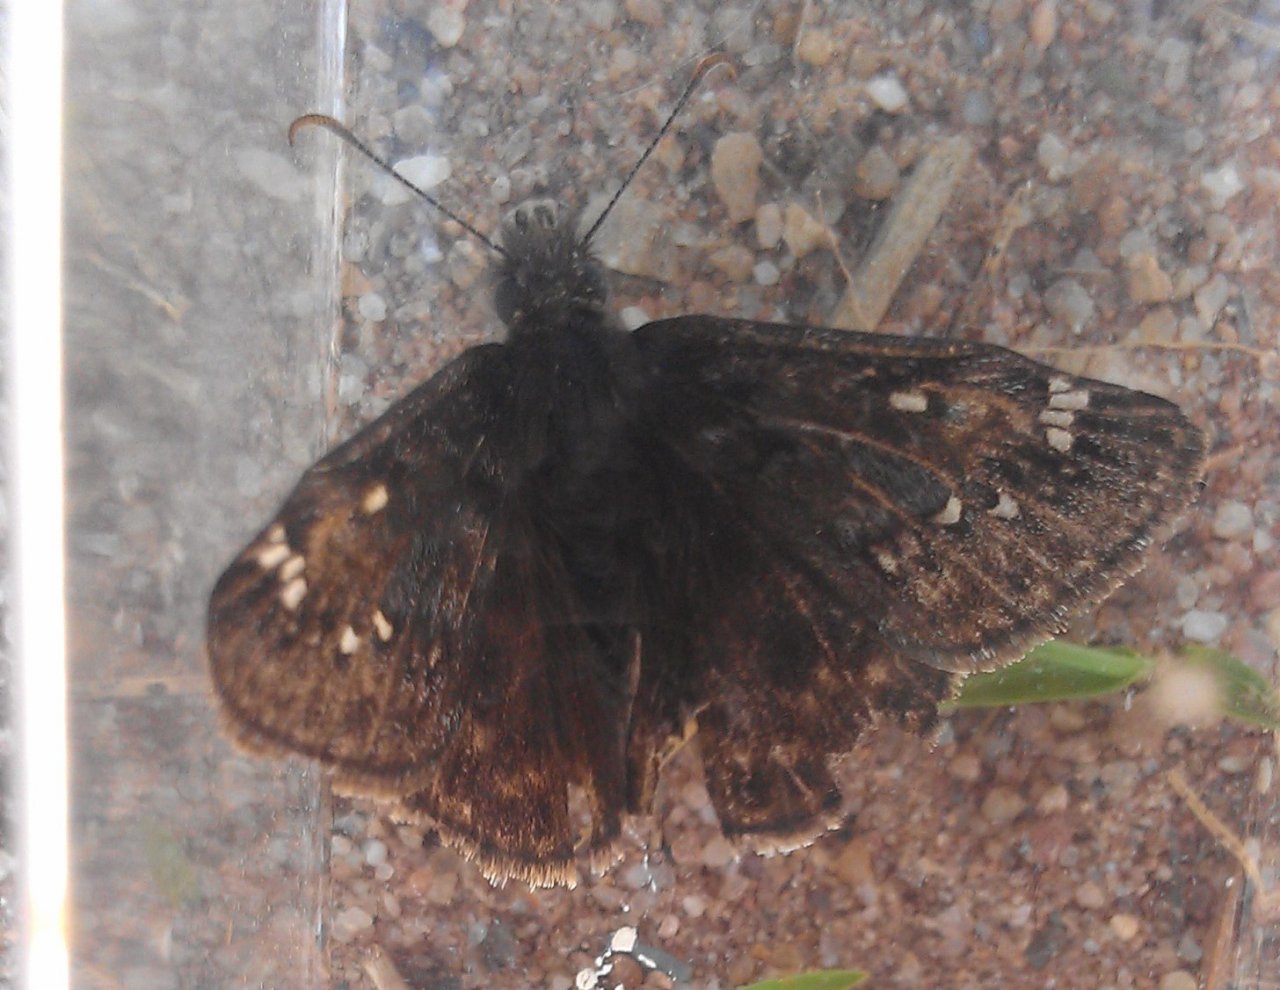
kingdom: Animalia
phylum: Arthropoda
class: Insecta
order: Lepidoptera
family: Hesperiidae
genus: Gesta
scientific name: Gesta
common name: Juvenal's Duskywing
